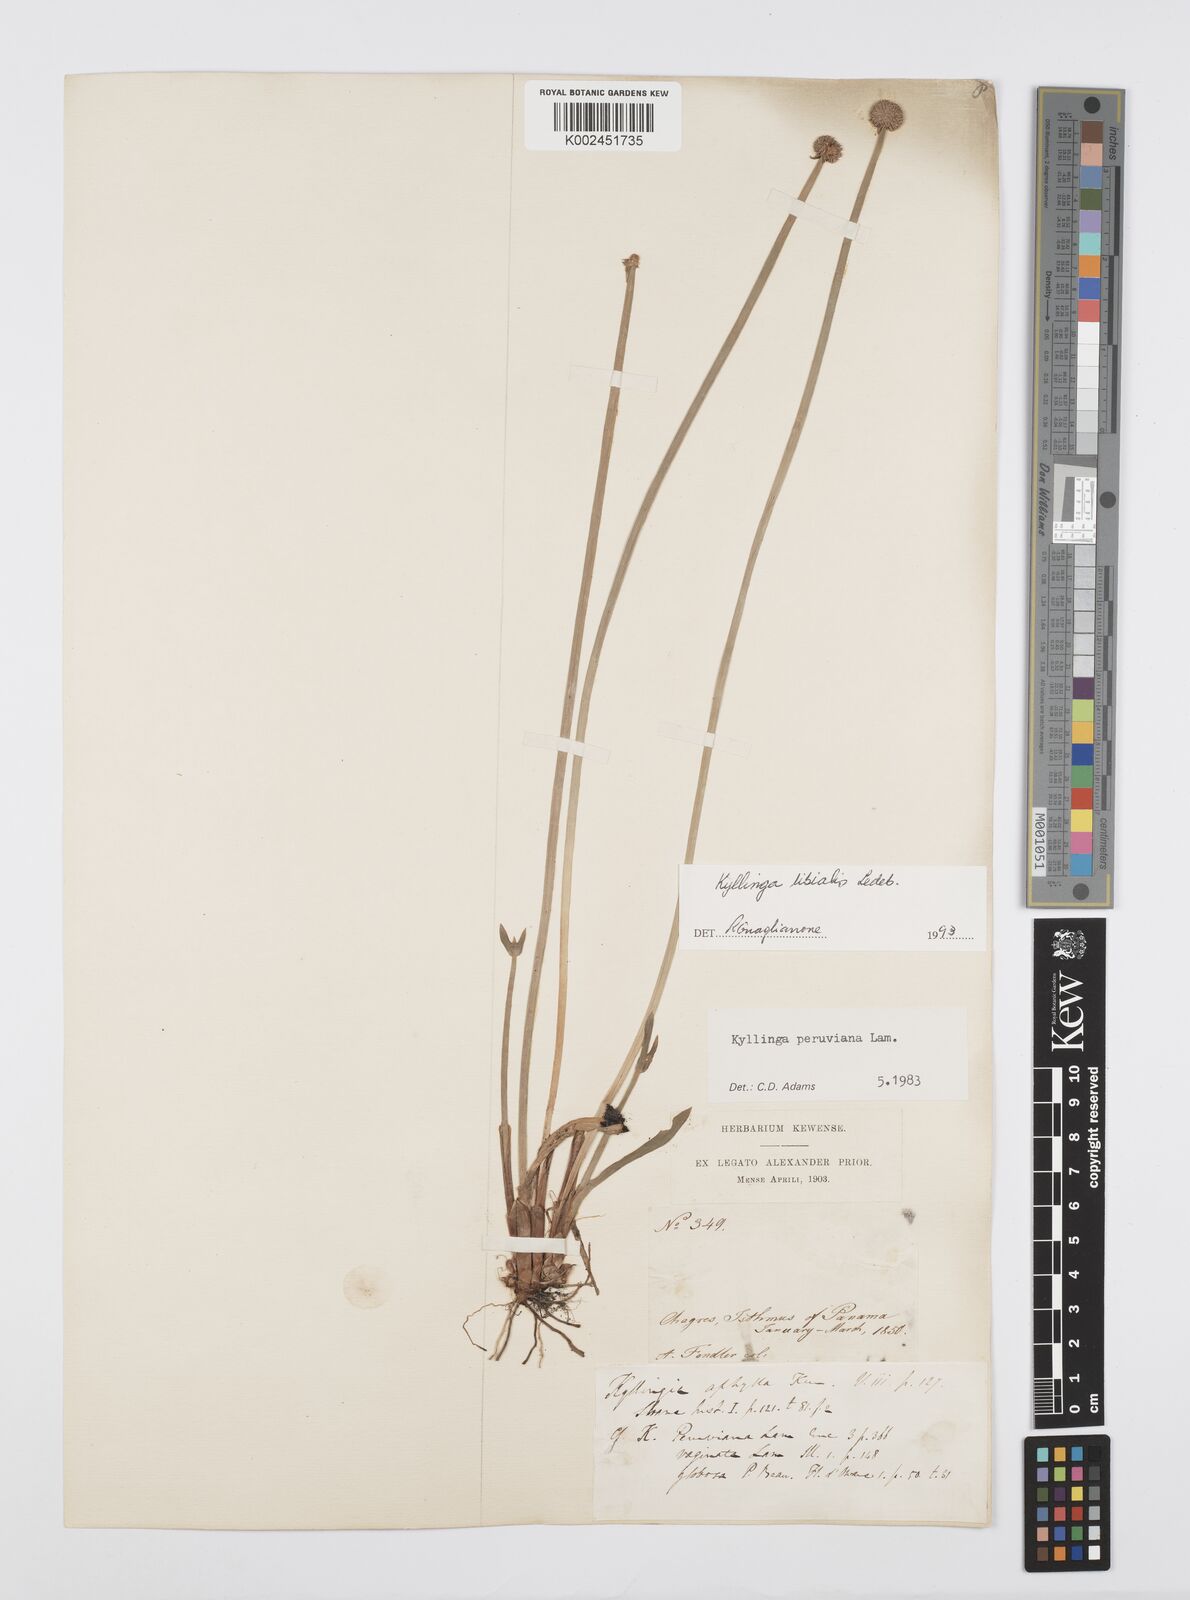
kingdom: Plantae
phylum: Tracheophyta
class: Liliopsida
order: Poales
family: Cyperaceae
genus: Cyperus
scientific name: Cyperus obtusatus
